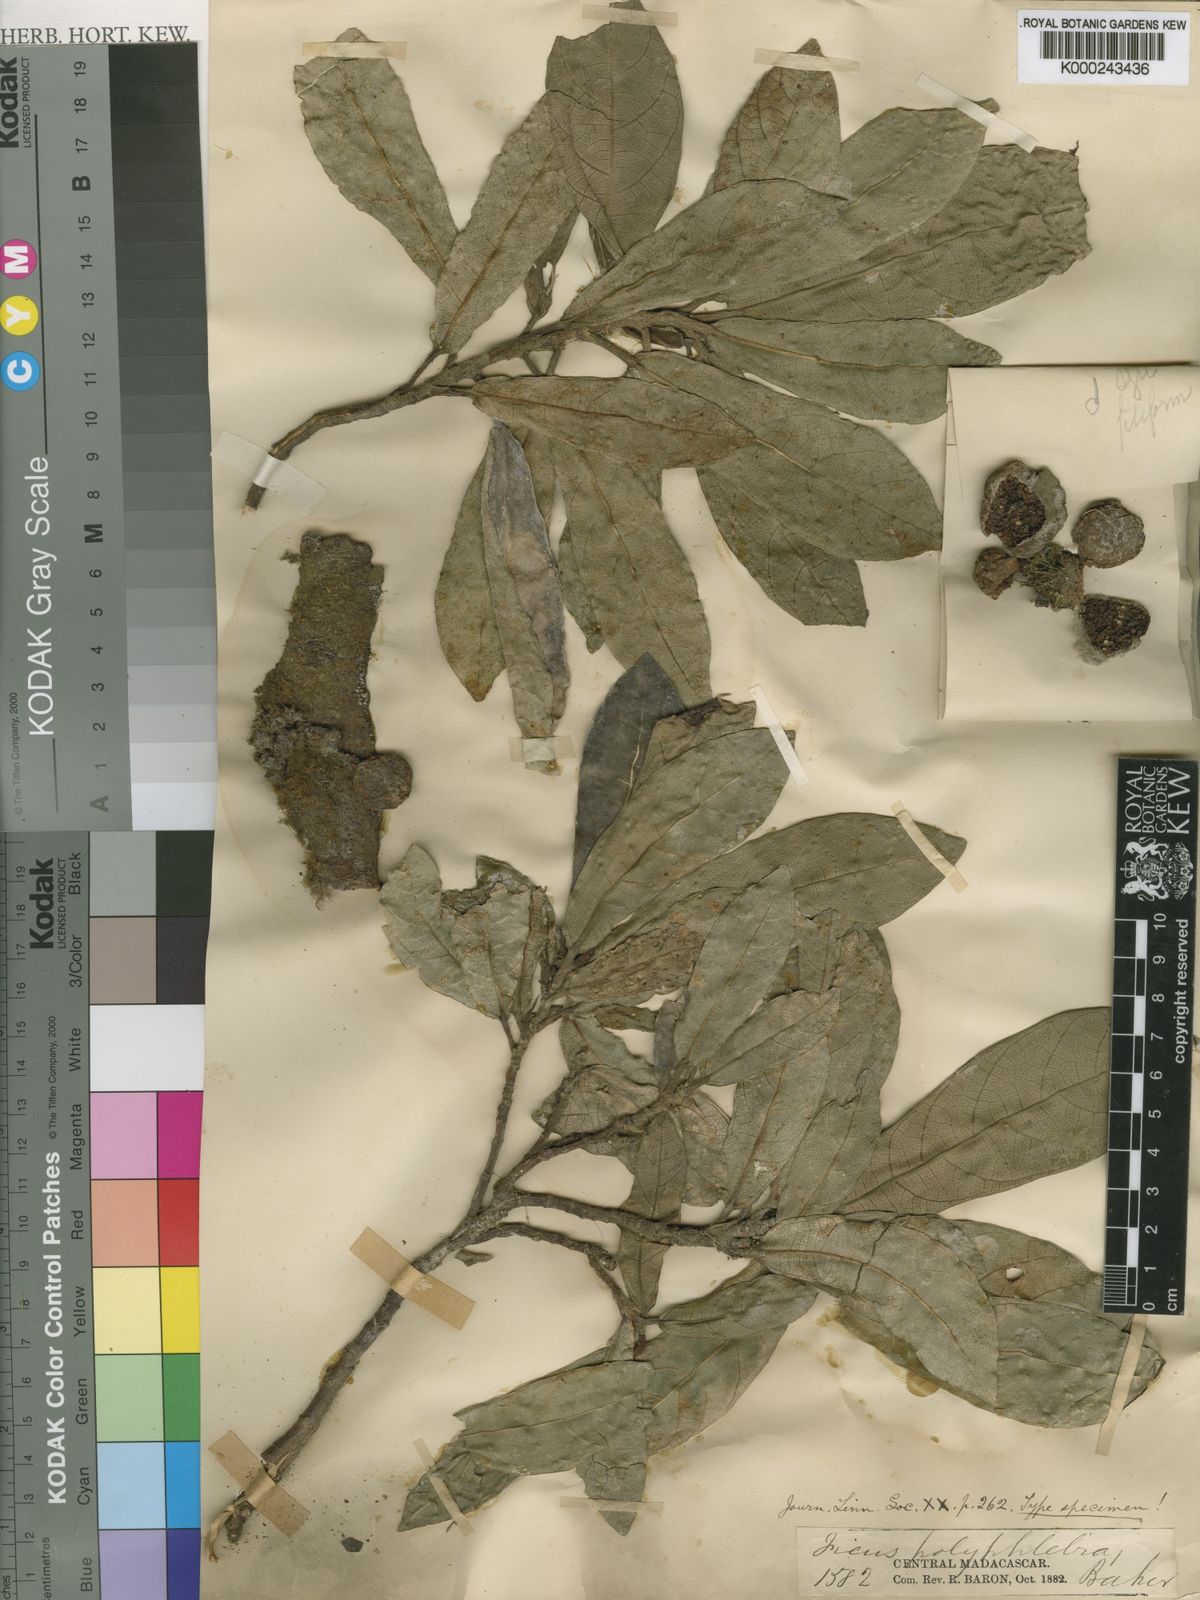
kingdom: Plantae
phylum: Tracheophyta
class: Magnoliopsida
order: Rosales
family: Moraceae
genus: Ficus
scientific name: Ficus polyphlebia
